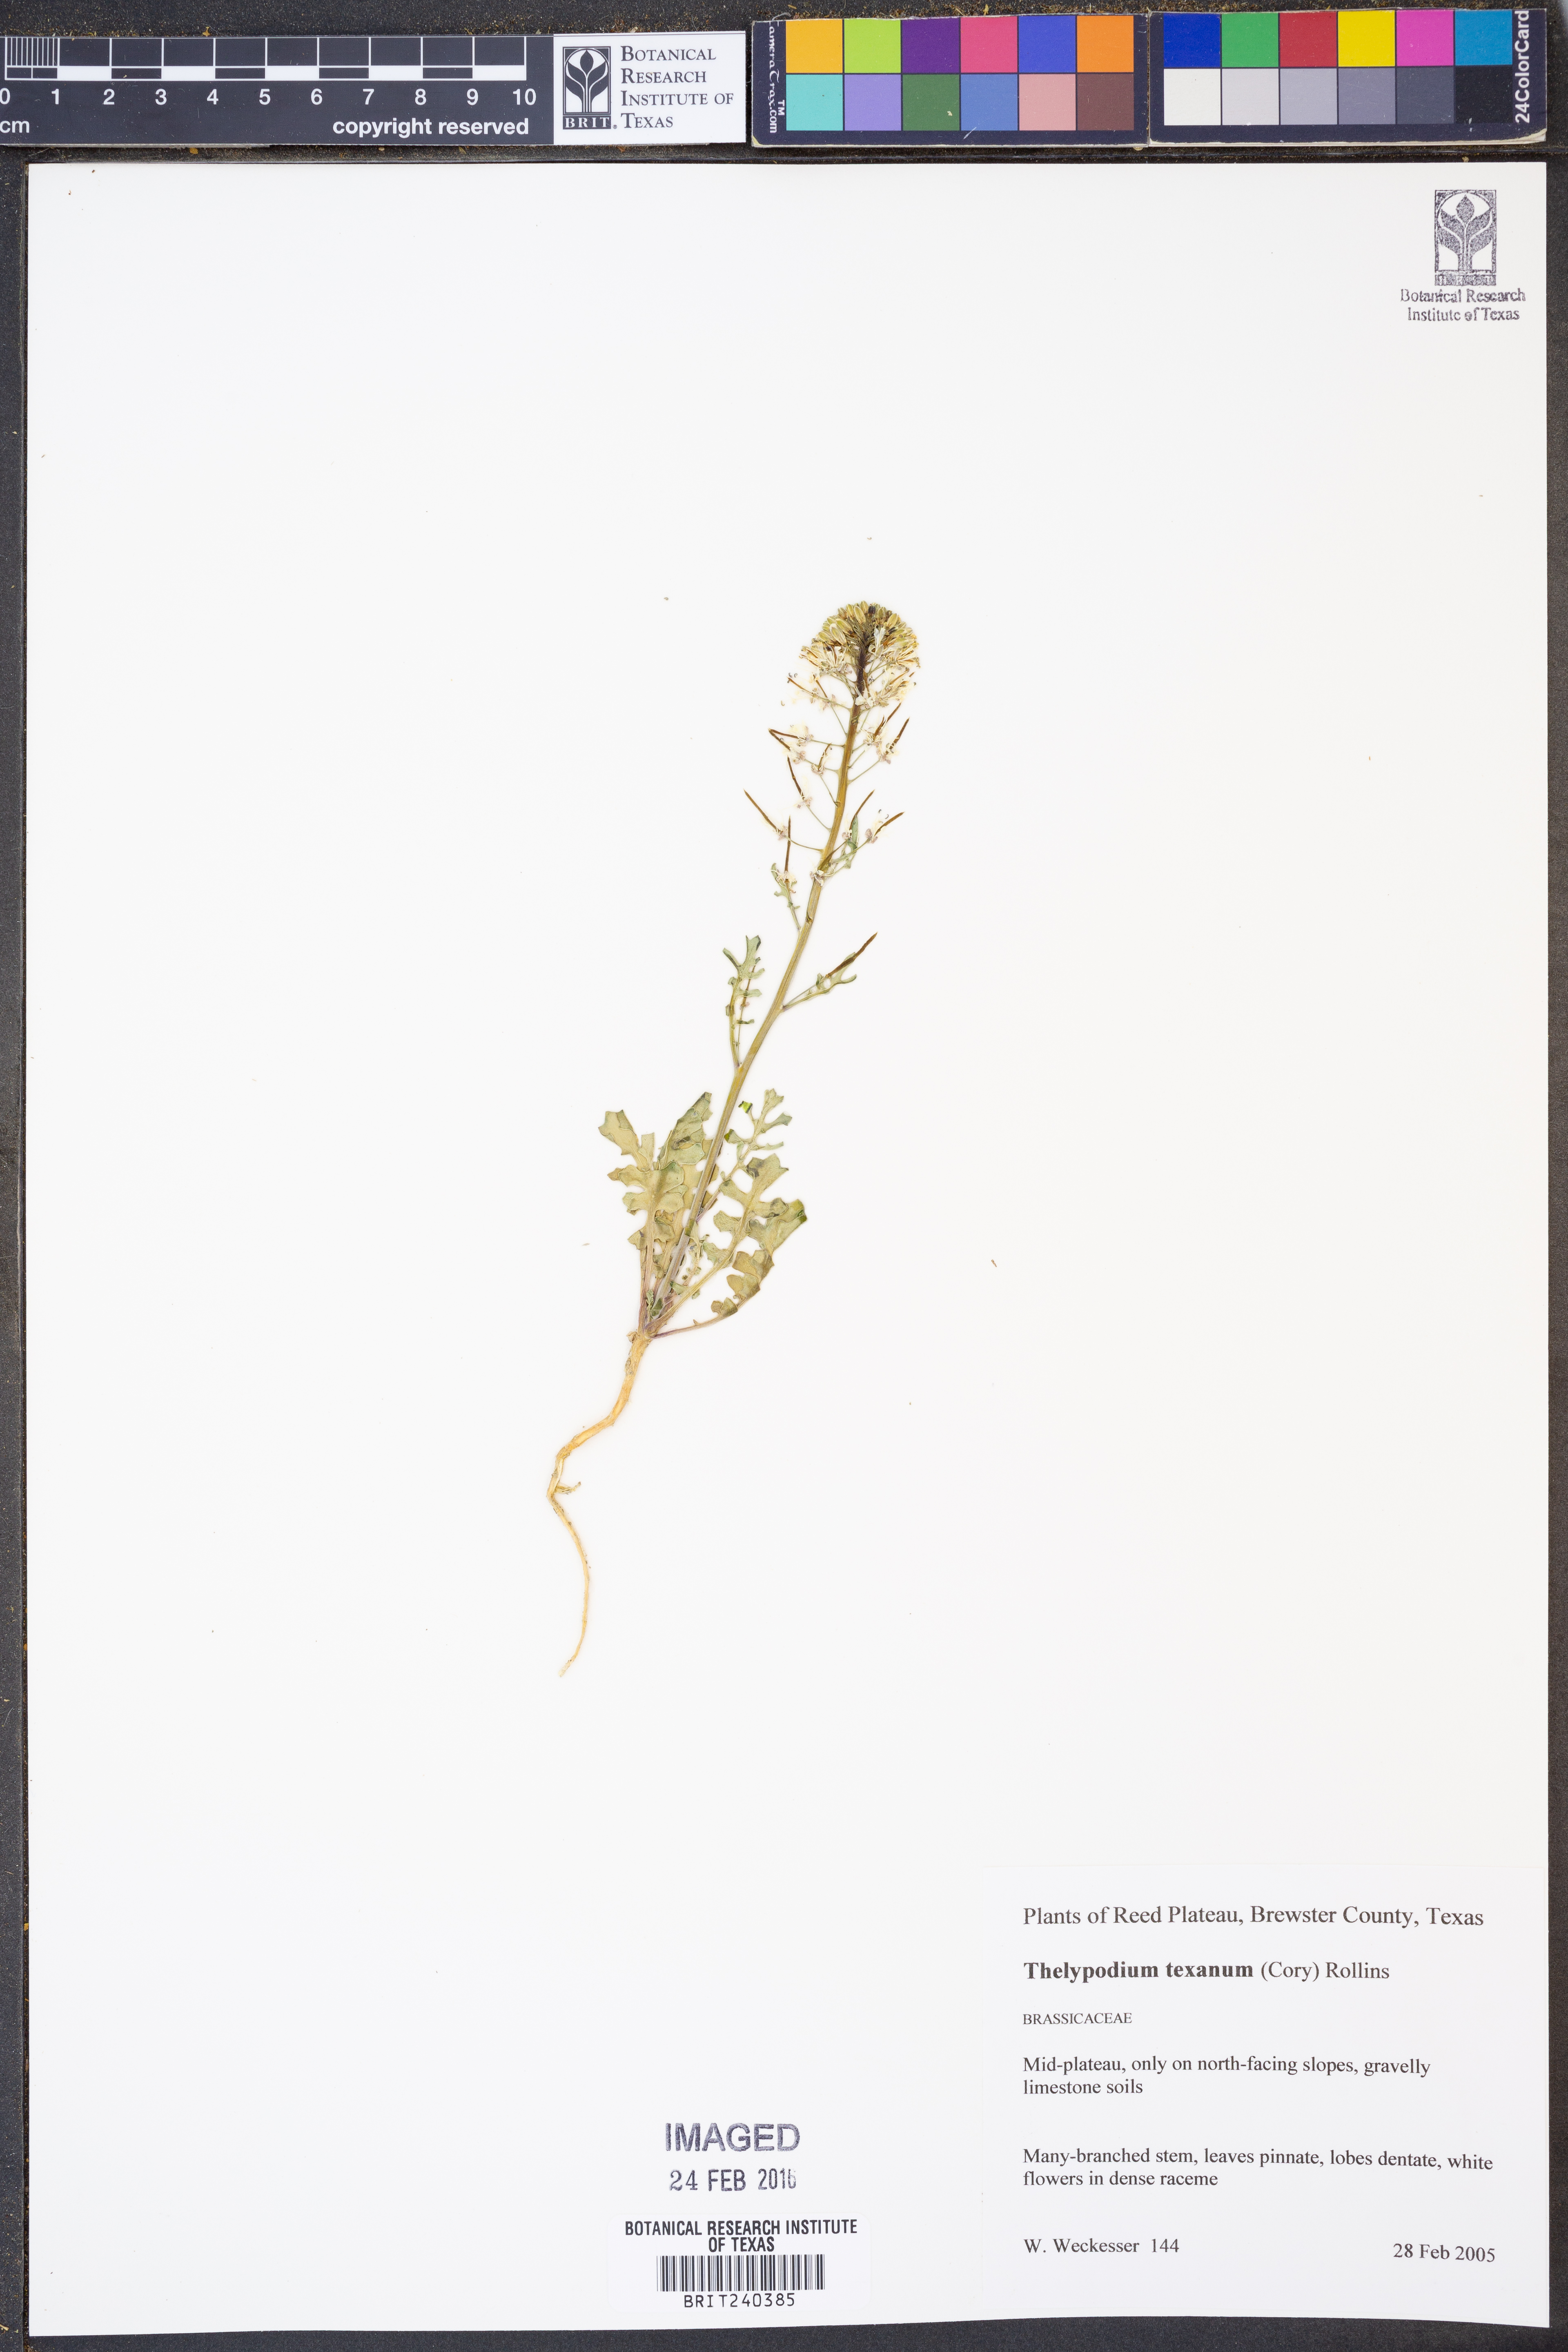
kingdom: Plantae
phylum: Tracheophyta
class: Magnoliopsida
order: Brassicales
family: Brassicaceae
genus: Thelypodium
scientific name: Thelypodium texanum
